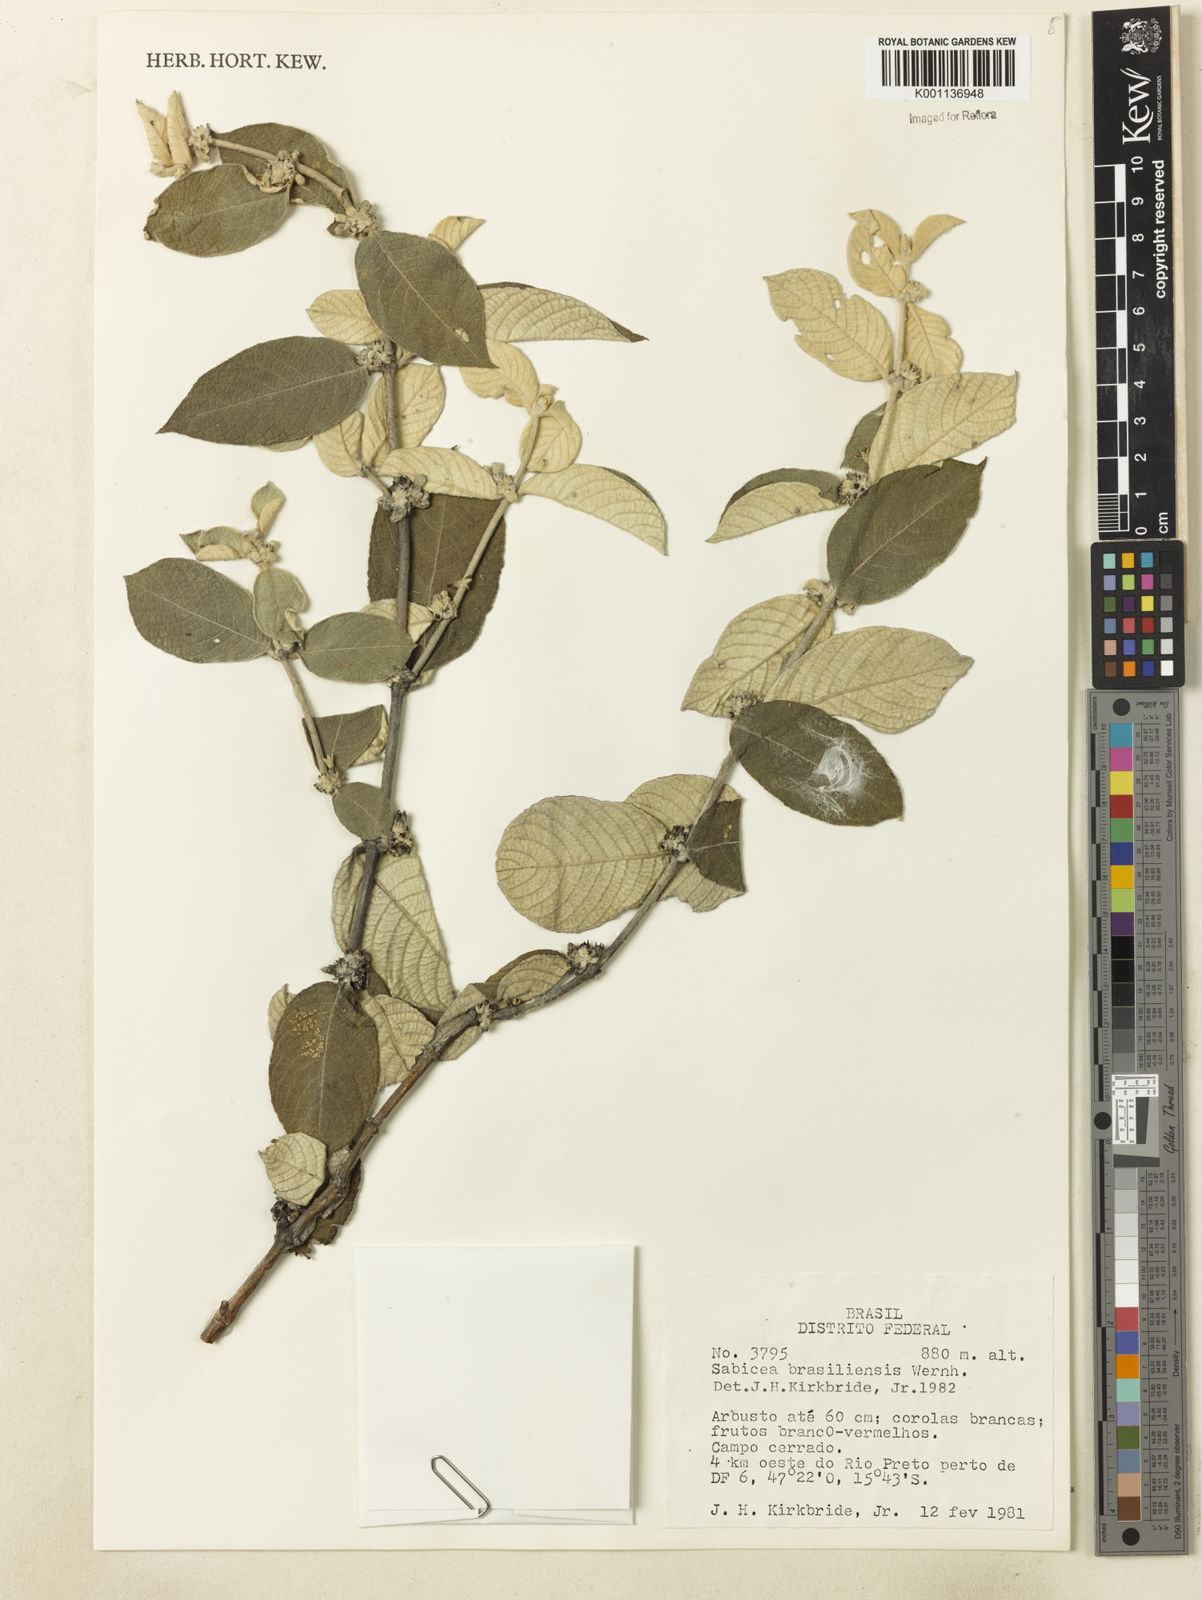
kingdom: Plantae
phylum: Tracheophyta
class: Magnoliopsida
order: Gentianales
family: Rubiaceae
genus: Sabicea
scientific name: Sabicea brasiliensis
